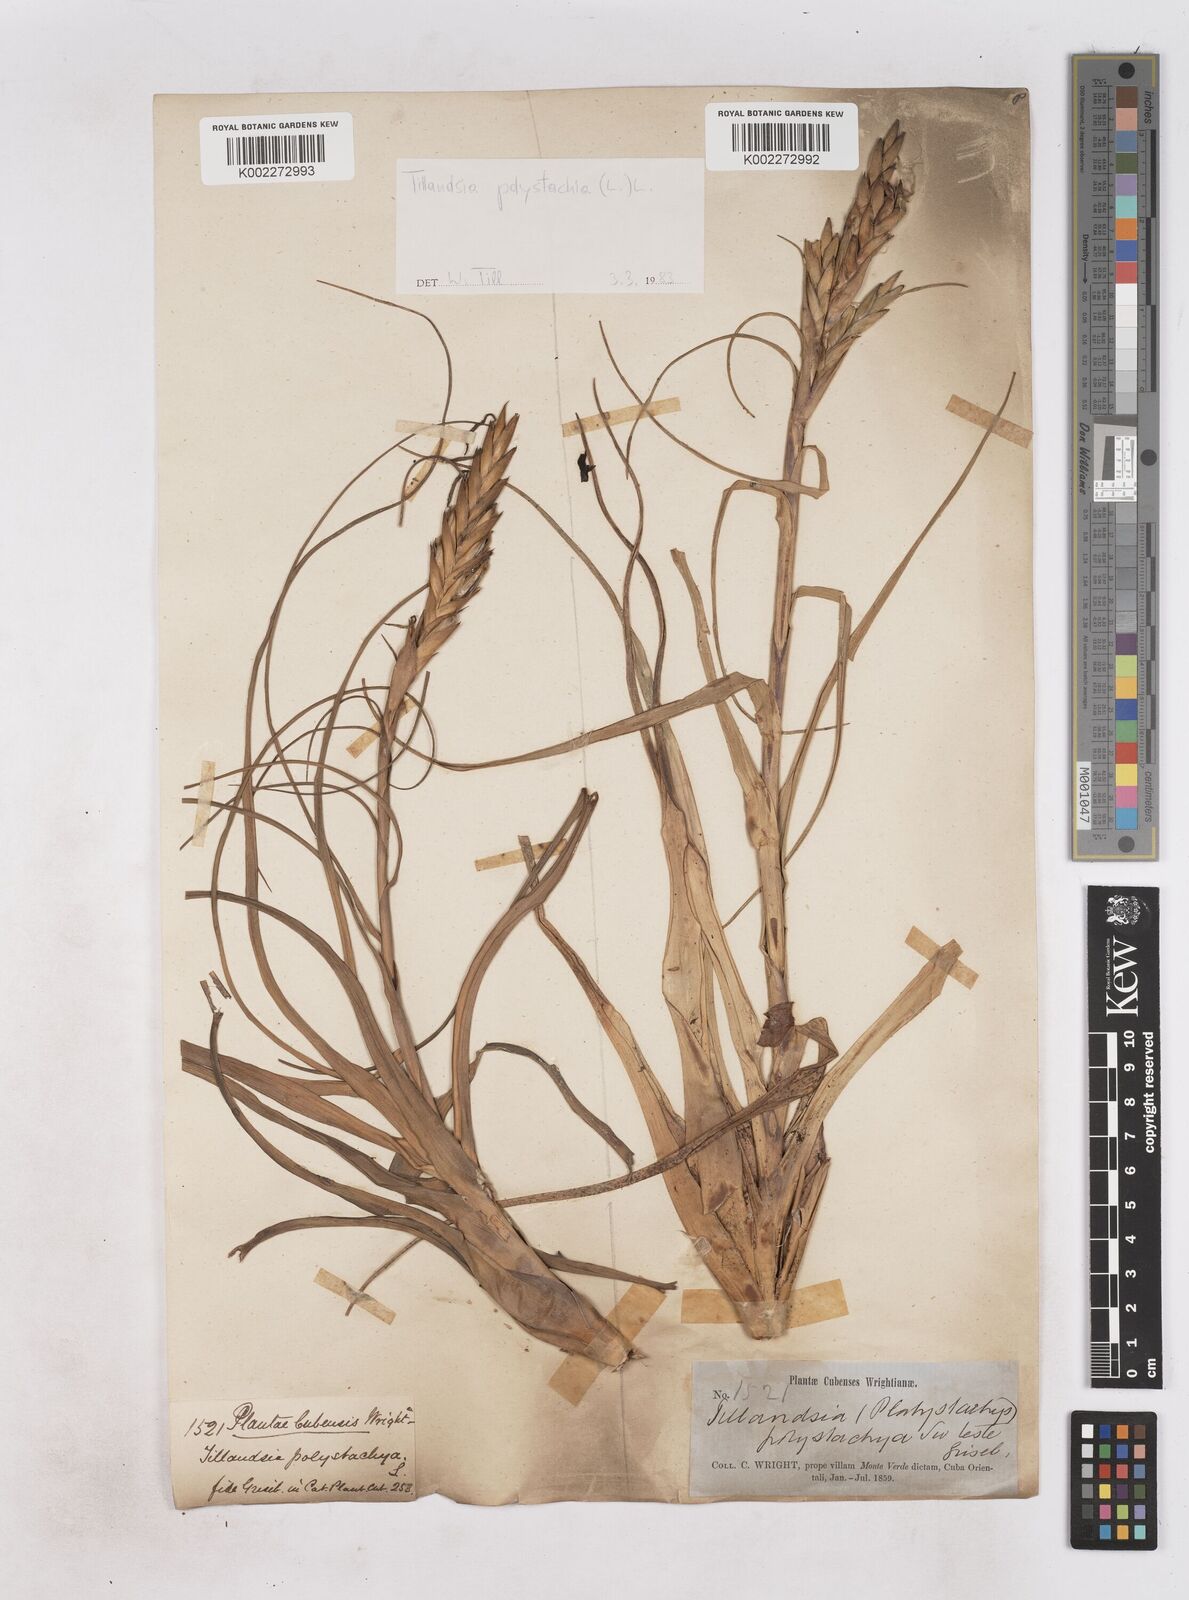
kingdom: Plantae
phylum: Tracheophyta
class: Liliopsida
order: Poales
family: Bromeliaceae
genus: Tillandsia
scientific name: Tillandsia polystachia
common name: Airplant
